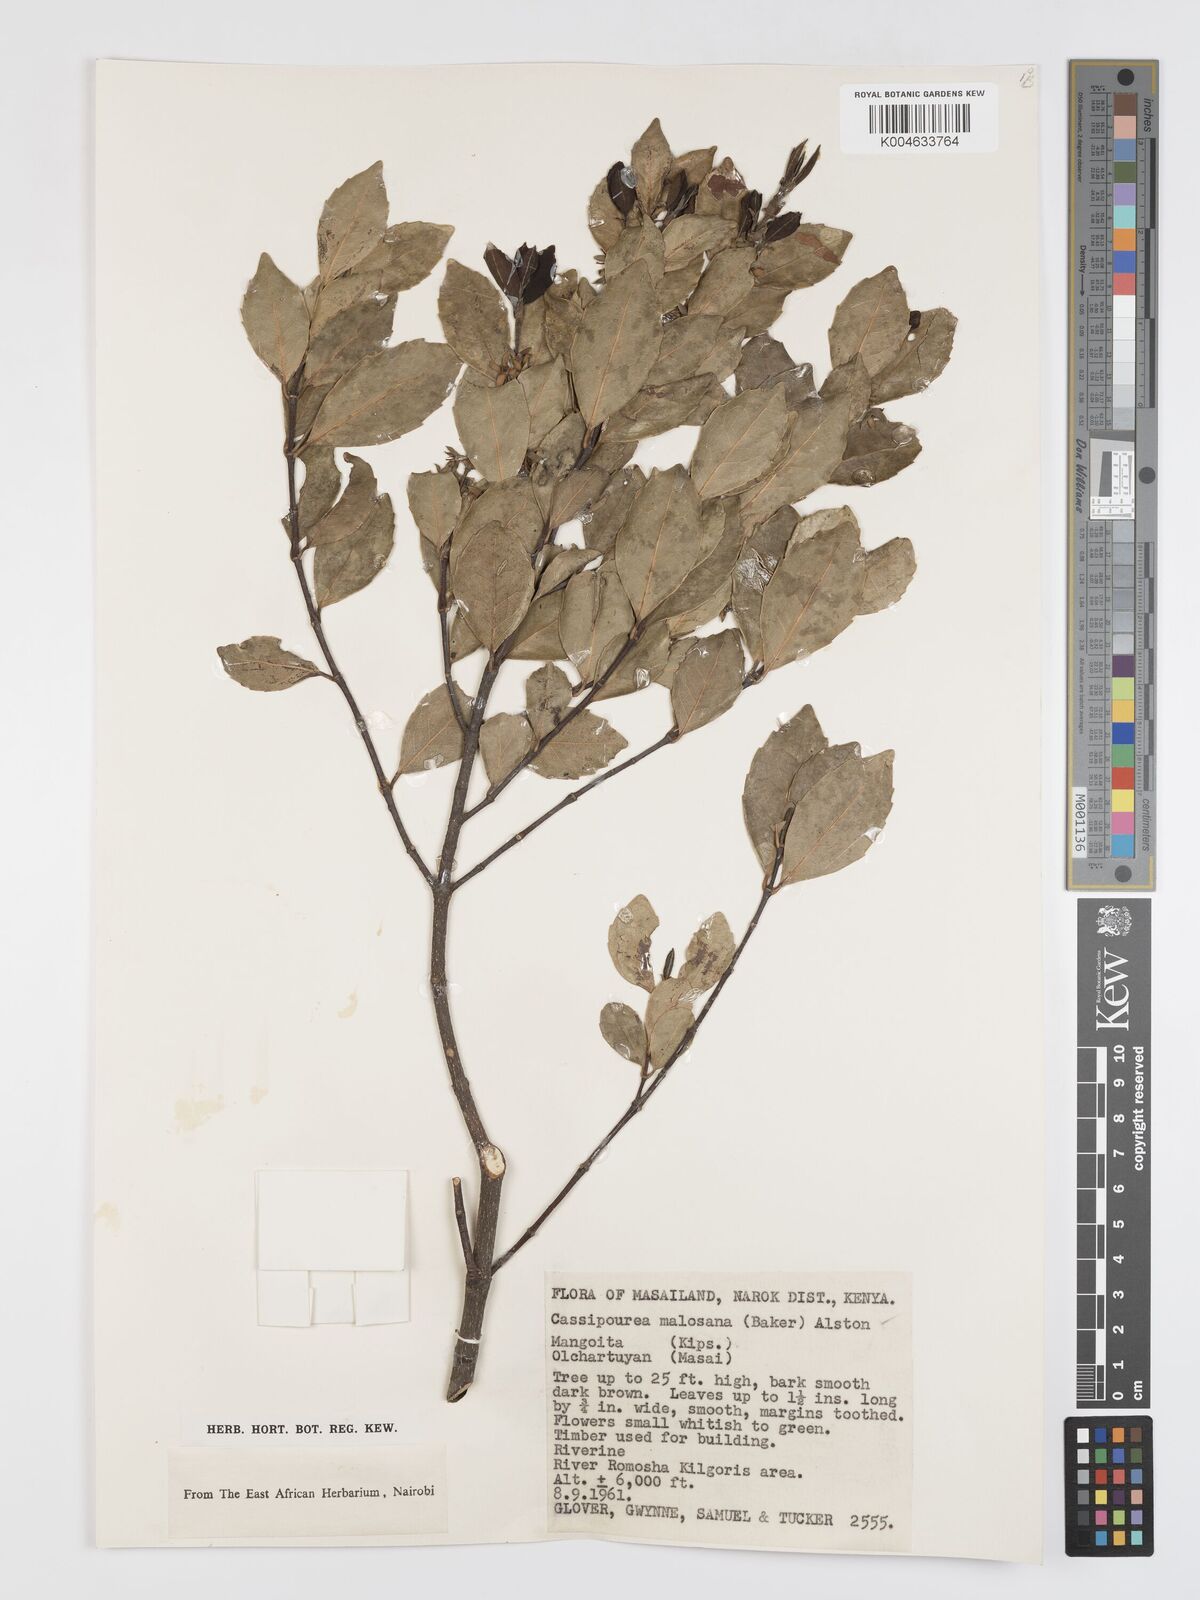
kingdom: Plantae
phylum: Tracheophyta
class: Magnoliopsida
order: Malpighiales
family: Rhizophoraceae
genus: Cassipourea
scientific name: Cassipourea malosana
